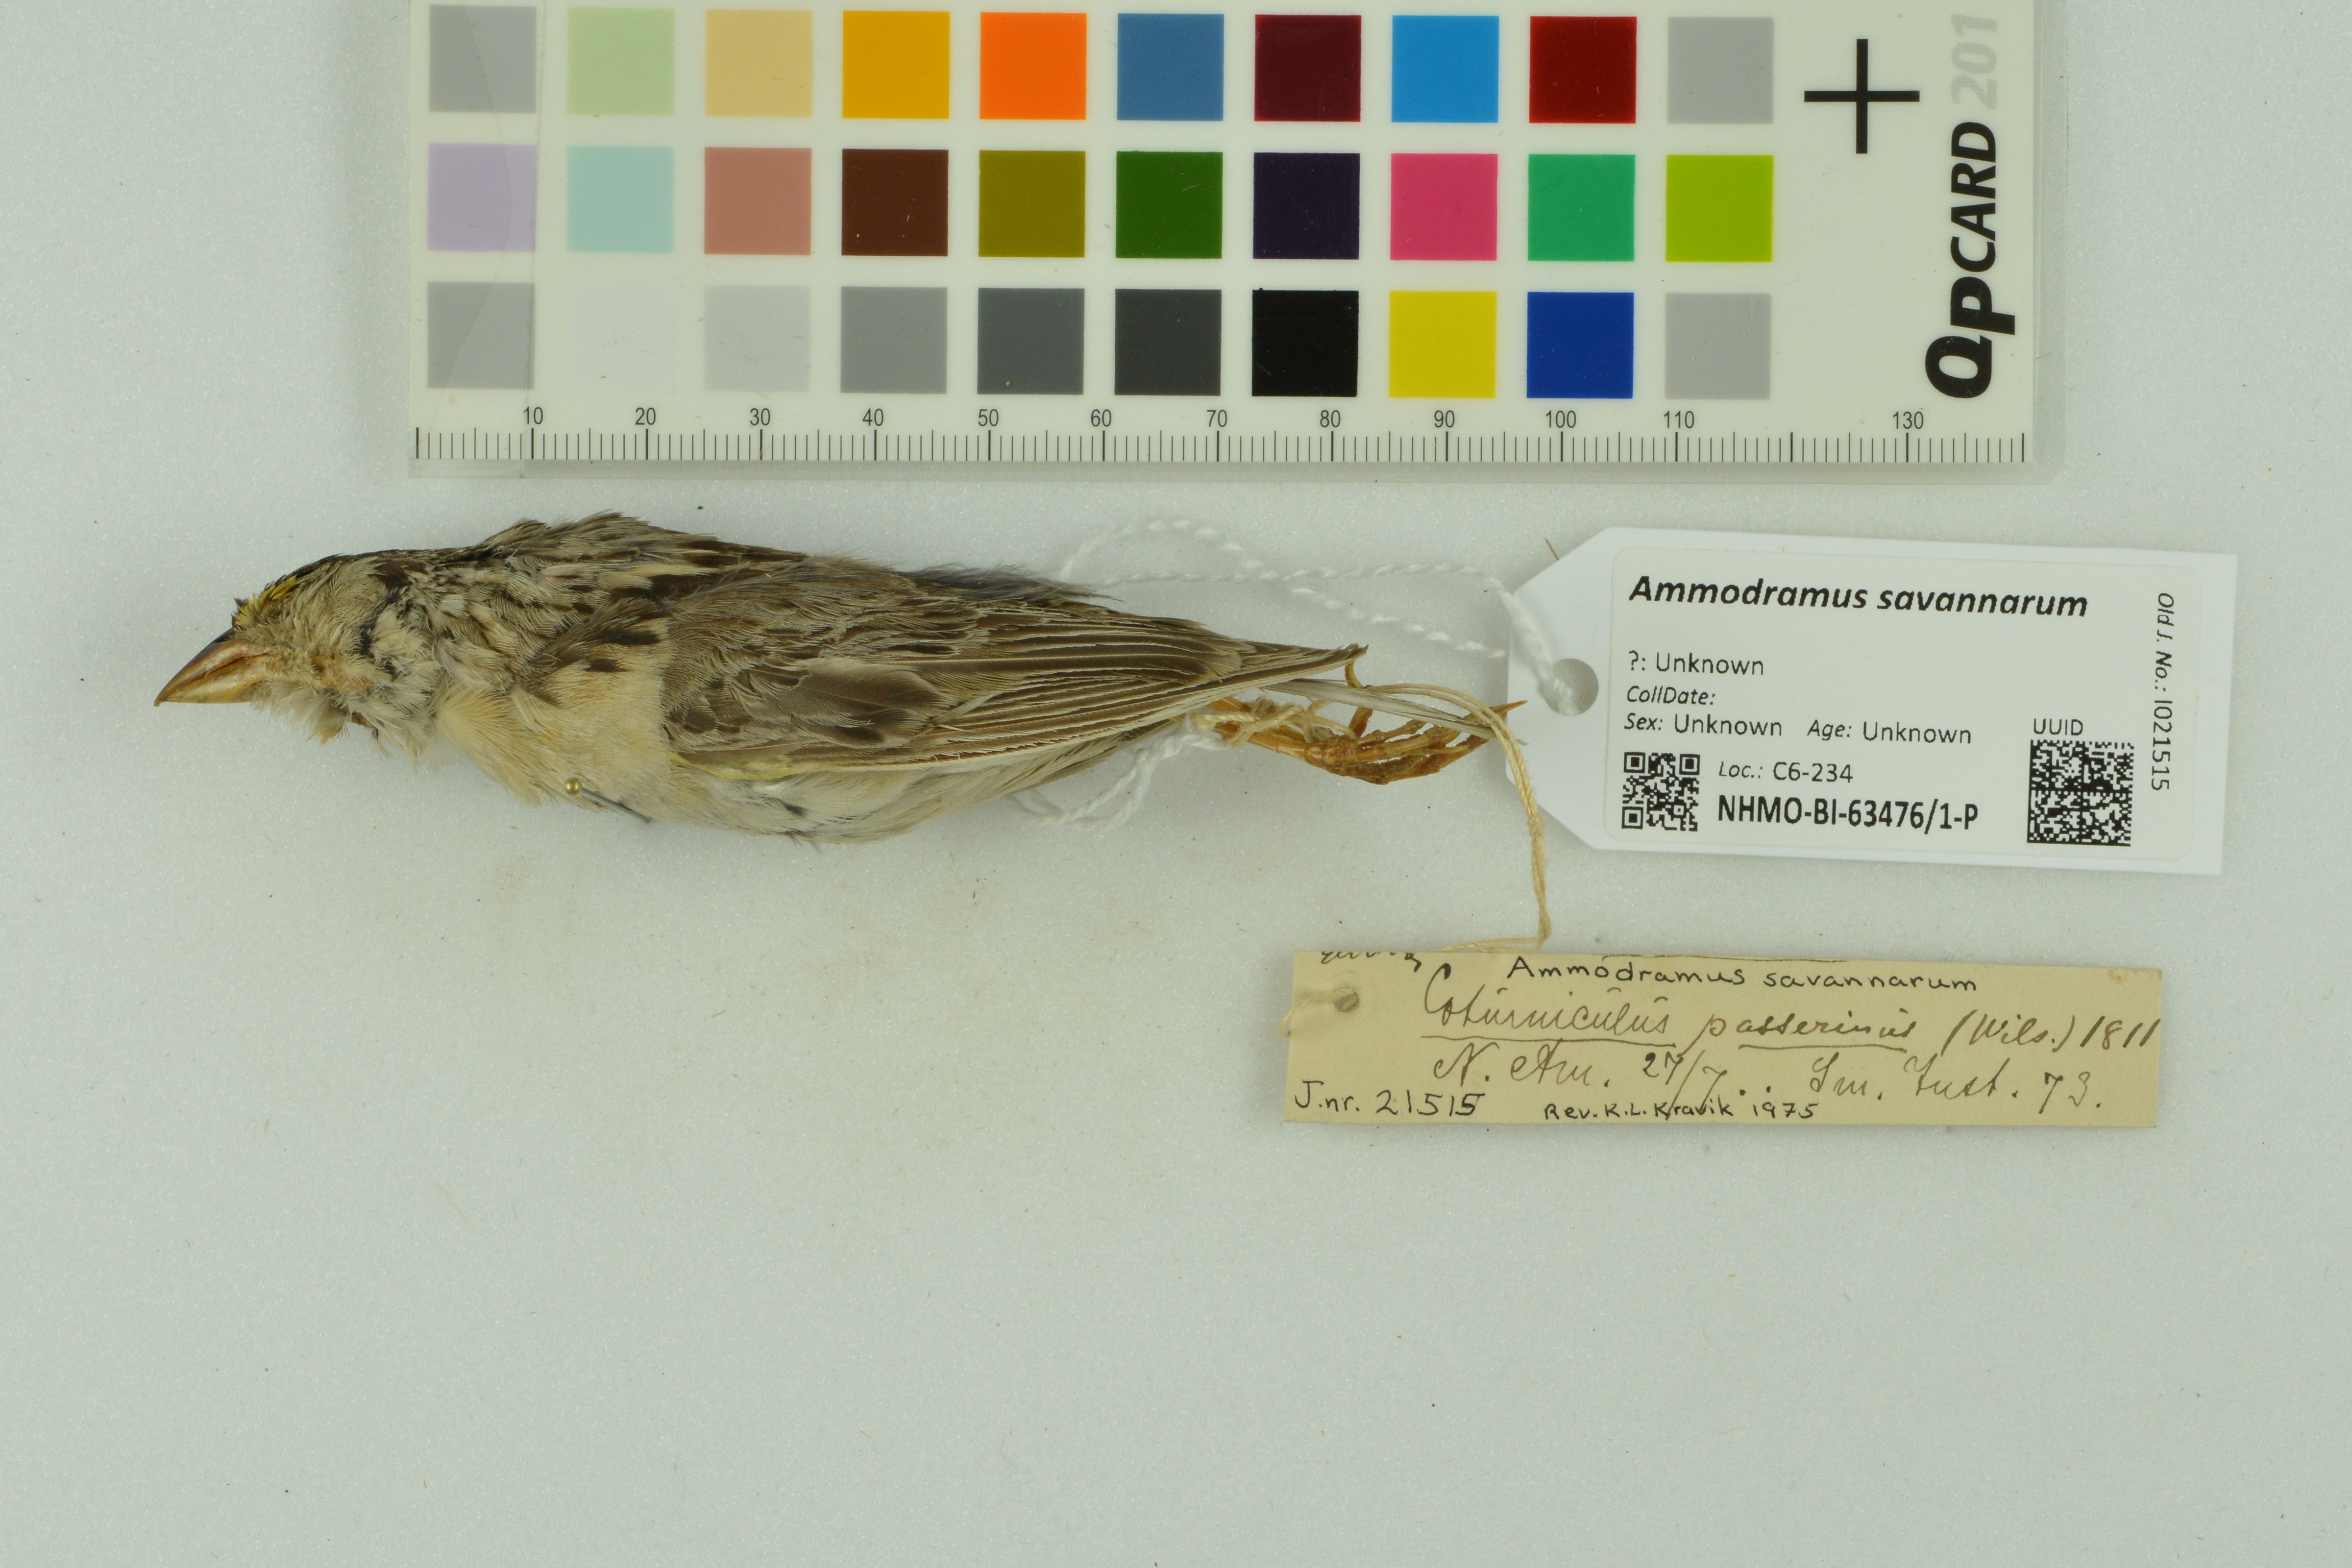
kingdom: Animalia
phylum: Chordata
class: Aves
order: Passeriformes
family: Passerellidae
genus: Ammodramus
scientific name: Ammodramus savannarum
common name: Grasshopper sparrow
